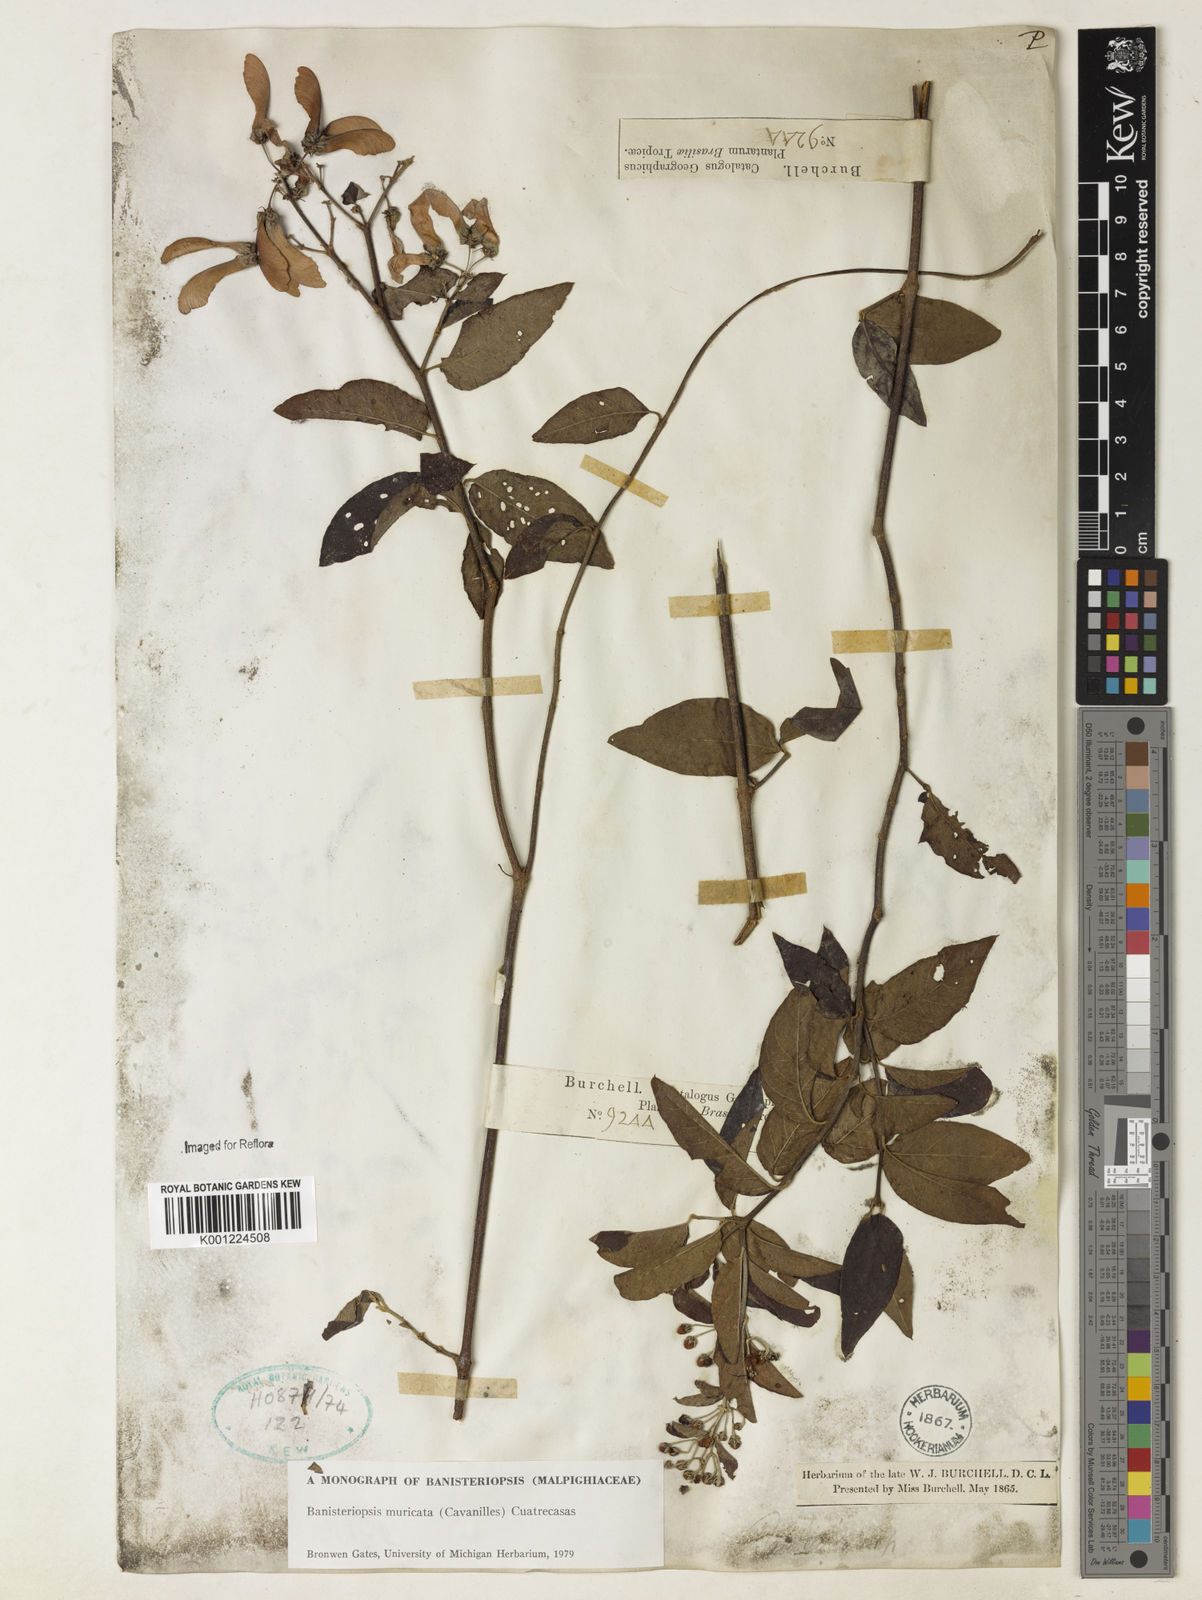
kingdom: Plantae
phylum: Tracheophyta
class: Magnoliopsida
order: Malpighiales
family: Malpighiaceae
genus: Banisteriopsis
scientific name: Banisteriopsis muricata
